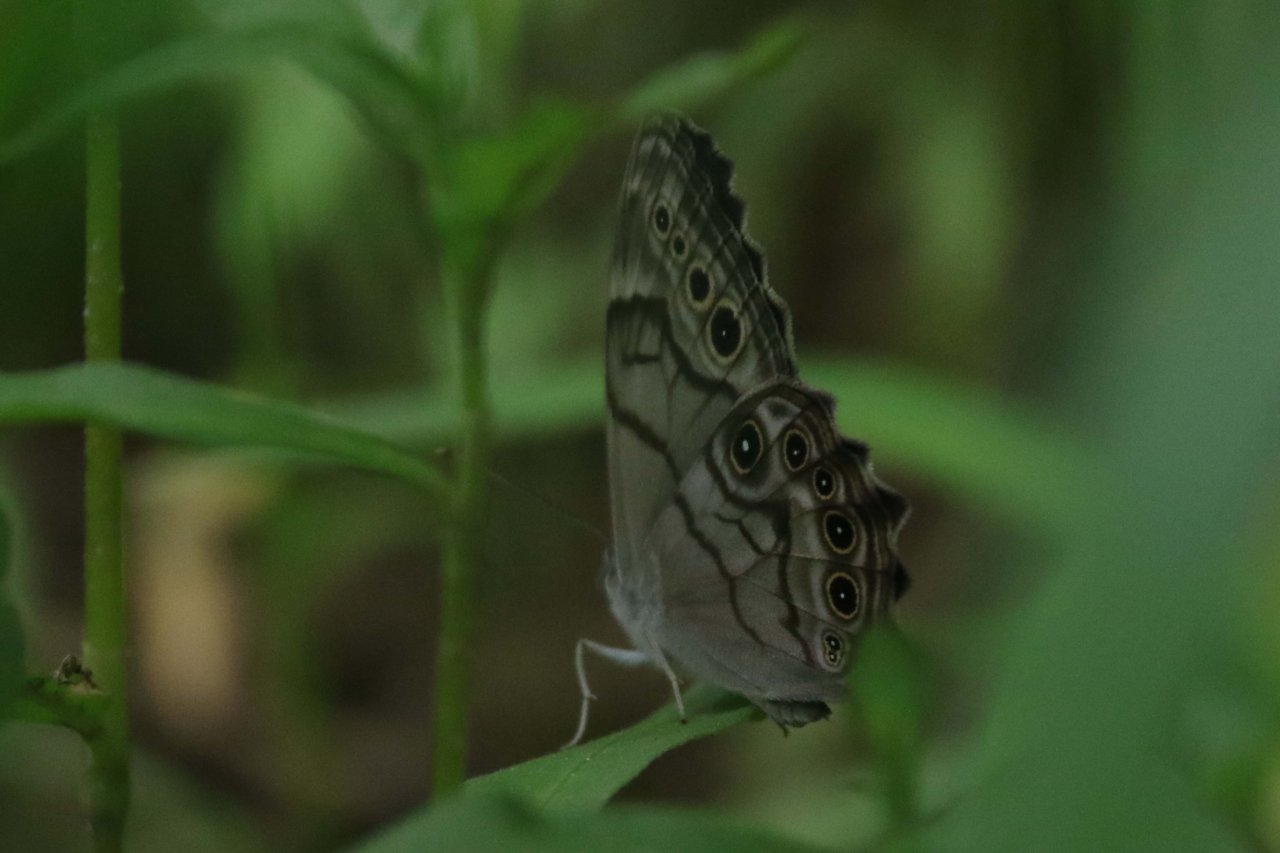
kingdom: Animalia
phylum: Arthropoda
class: Insecta
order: Lepidoptera
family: Nymphalidae
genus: Lethe
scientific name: Lethe anthedon
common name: Northern Pearly-Eye
